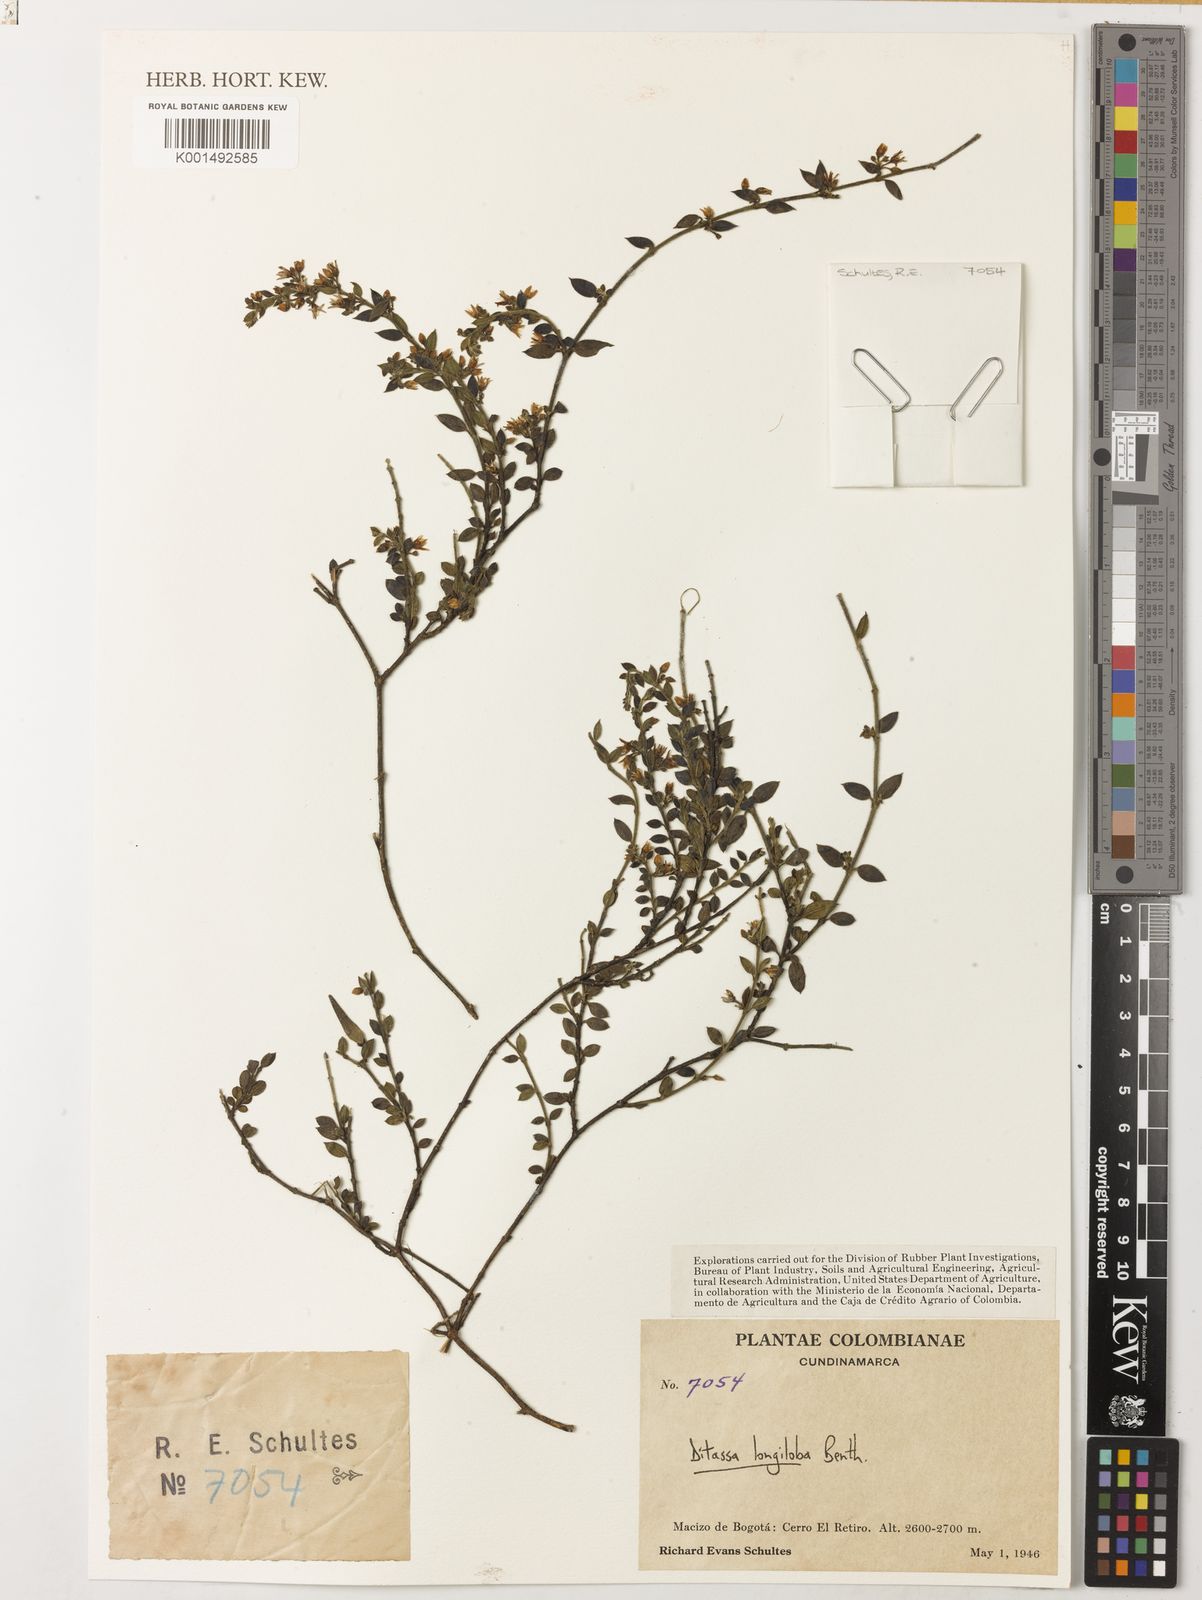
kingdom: Plantae
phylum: Tracheophyta
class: Magnoliopsida
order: Gentianales
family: Apocynaceae
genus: Ditassa
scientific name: Ditassa longiloba
